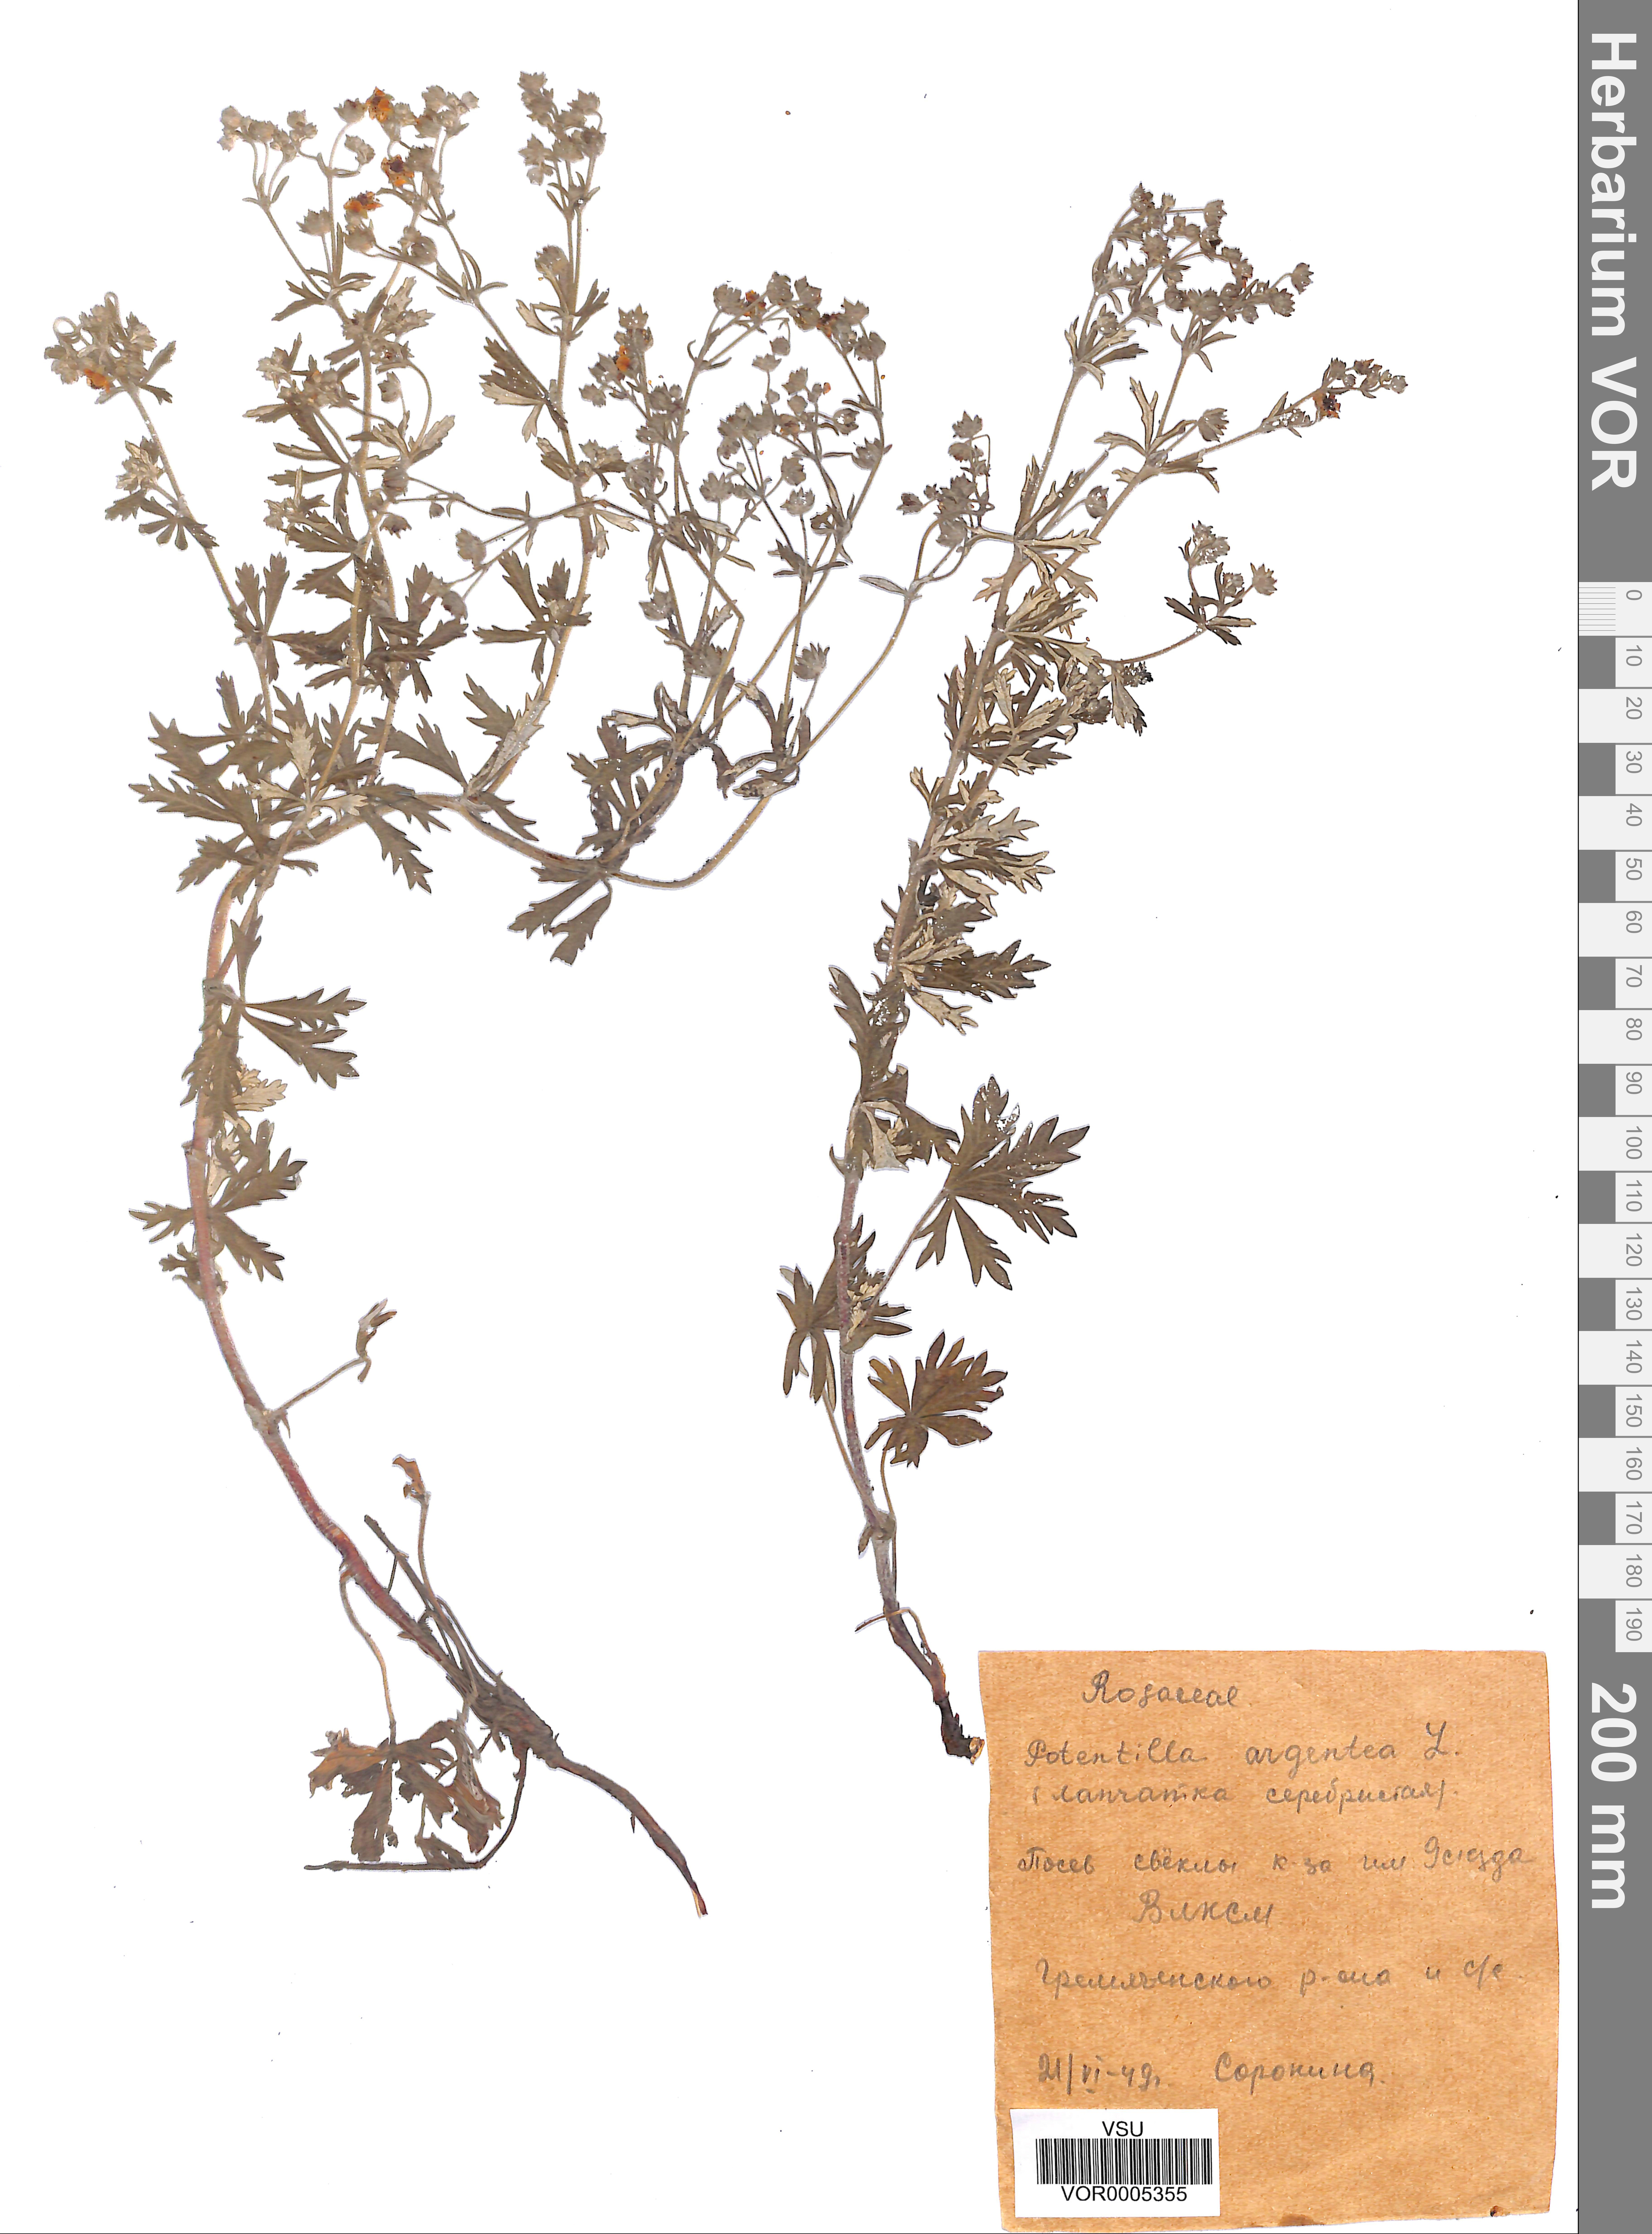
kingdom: Plantae
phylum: Tracheophyta
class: Magnoliopsida
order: Rosales
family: Rosaceae
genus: Potentilla
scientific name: Potentilla argentea
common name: Hoary cinquefoil
